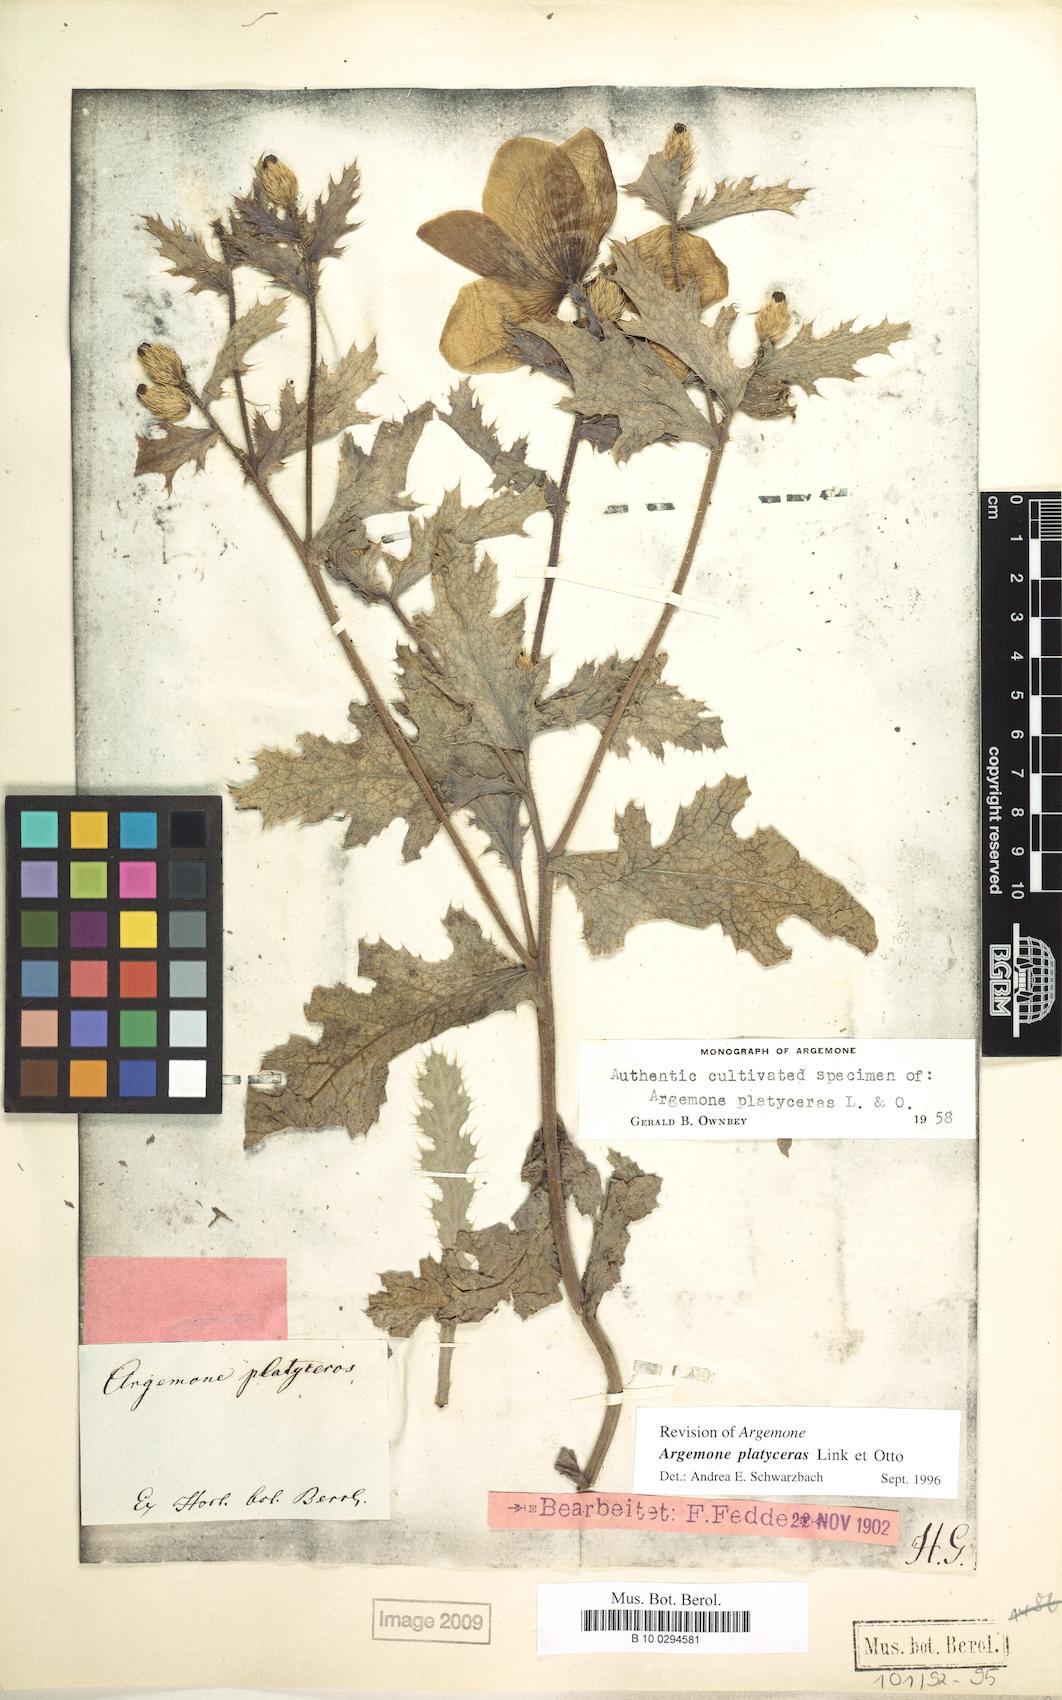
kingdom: Plantae
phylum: Tracheophyta
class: Magnoliopsida
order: Ranunculales
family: Papaveraceae
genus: Argemone
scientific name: Argemone platyceras
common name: Crested-poppy
